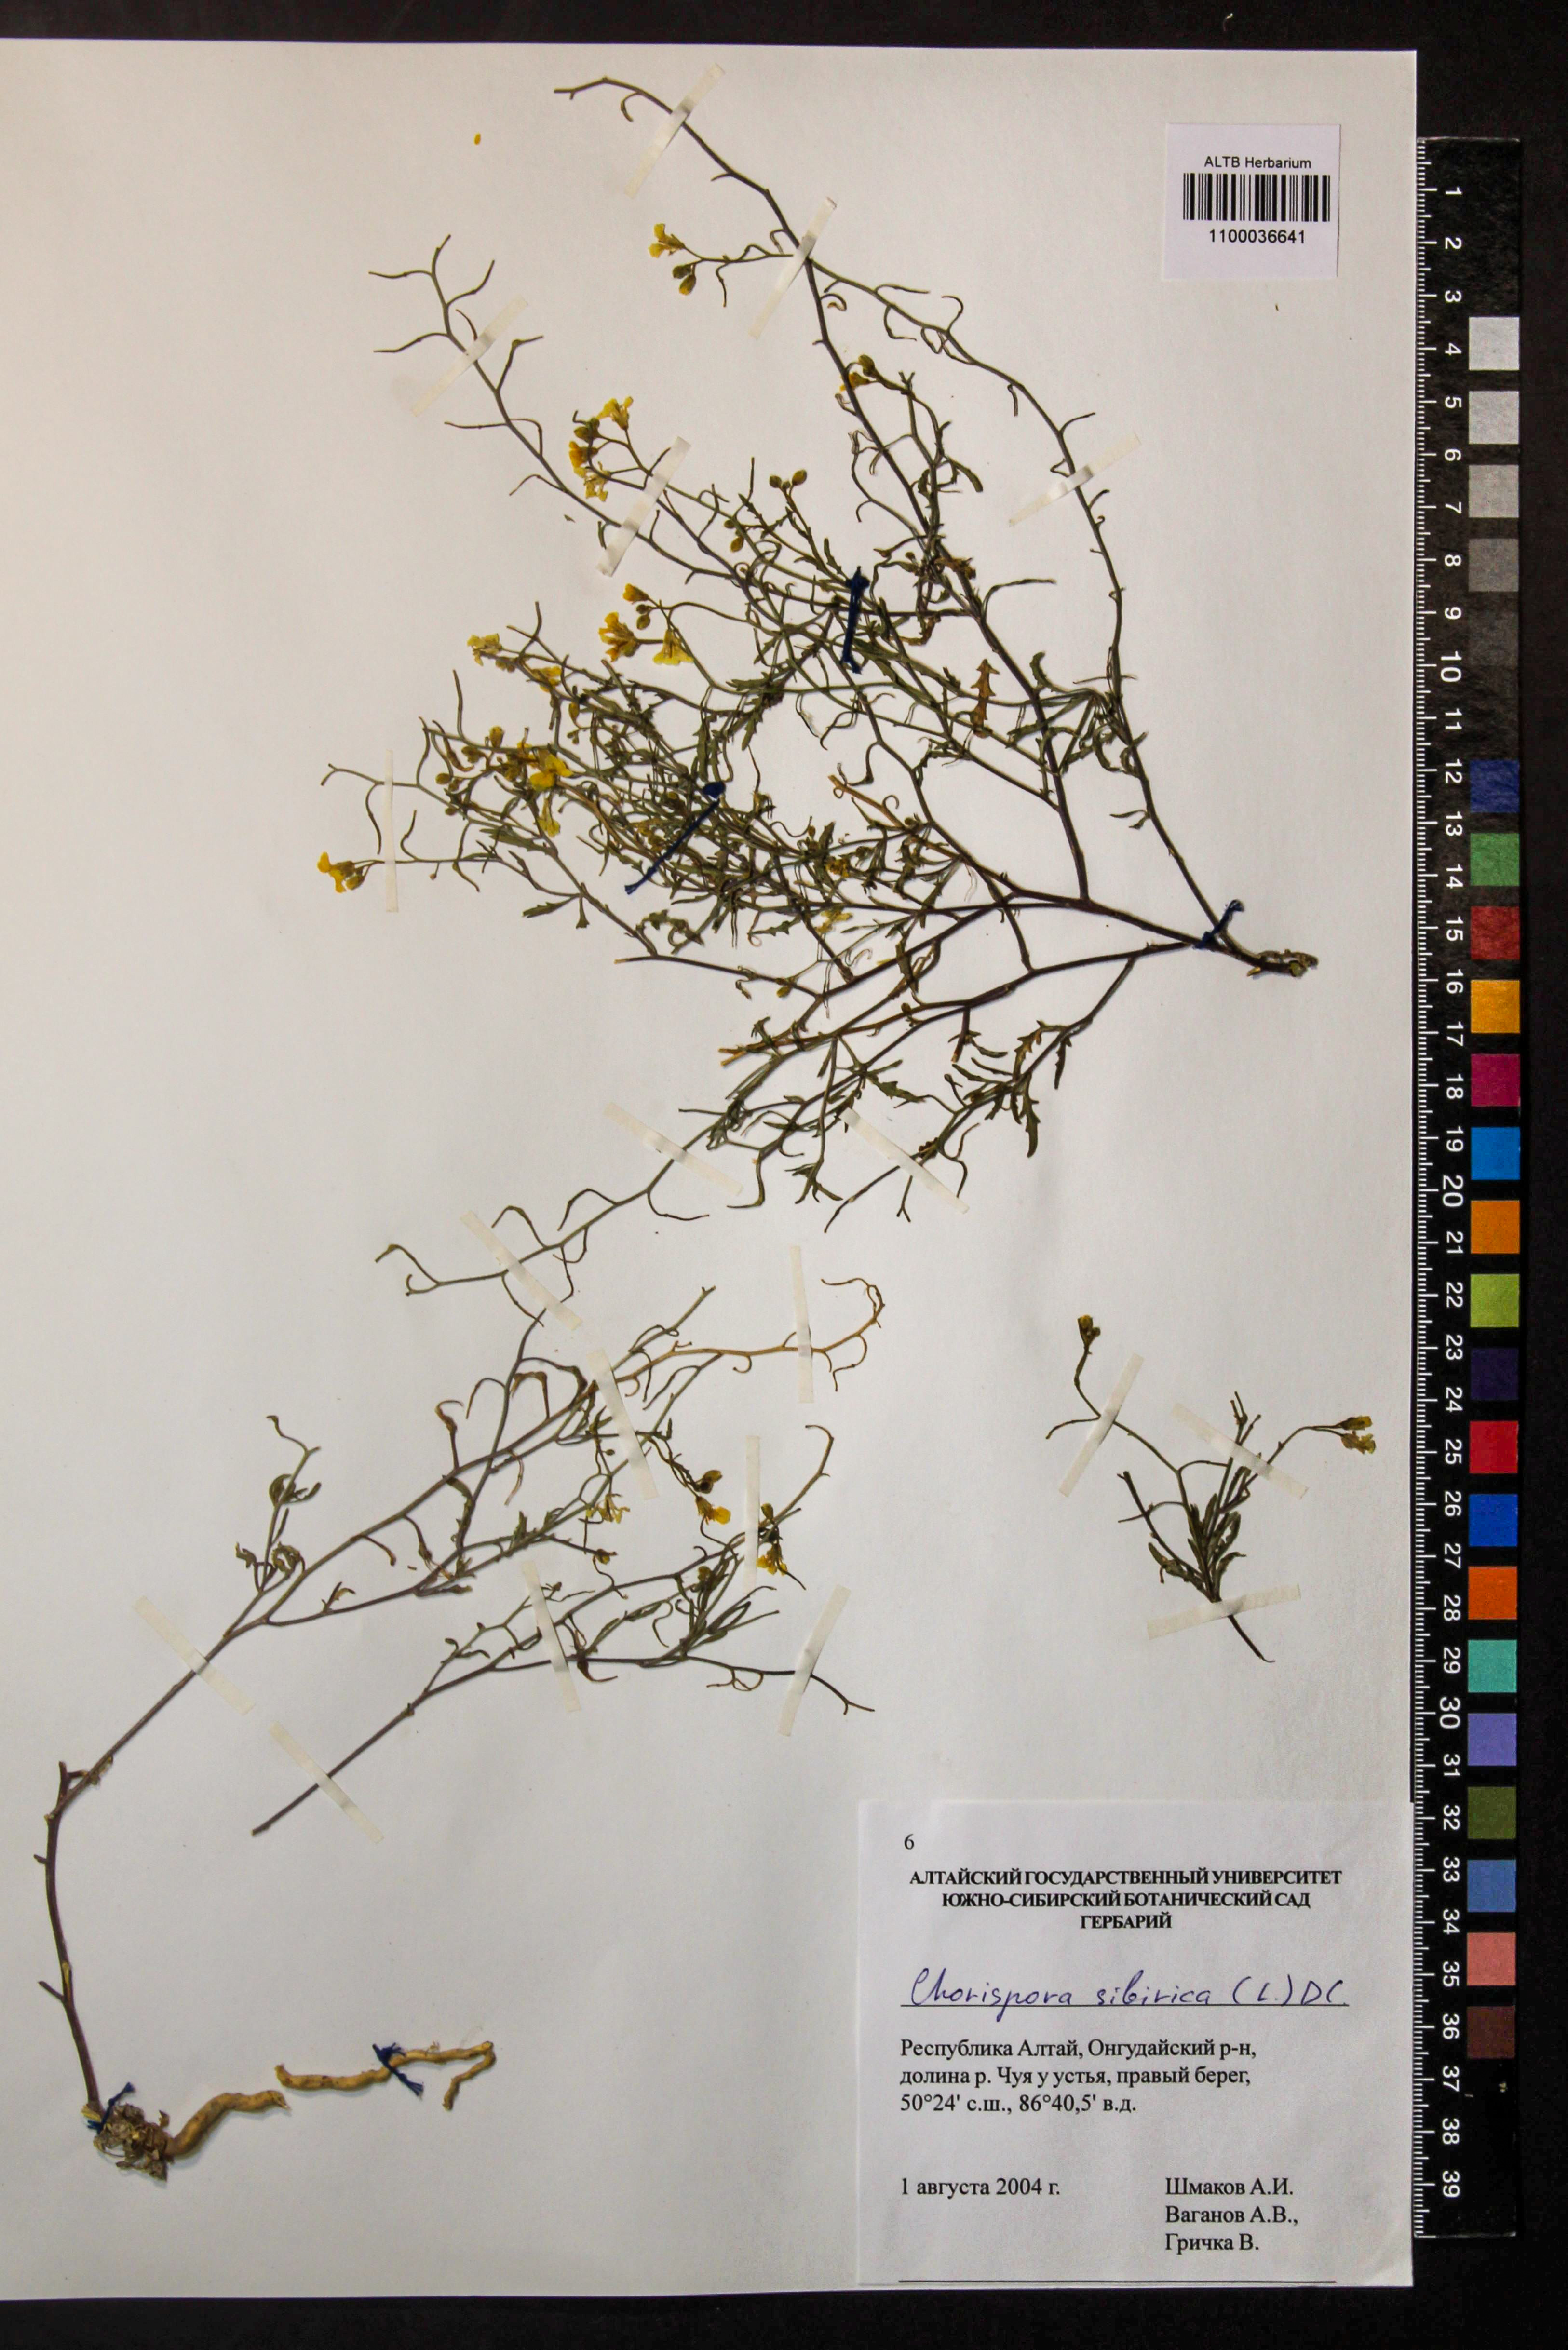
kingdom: Plantae
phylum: Tracheophyta
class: Magnoliopsida
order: Brassicales
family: Brassicaceae
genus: Chorispora
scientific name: Chorispora sibirica
